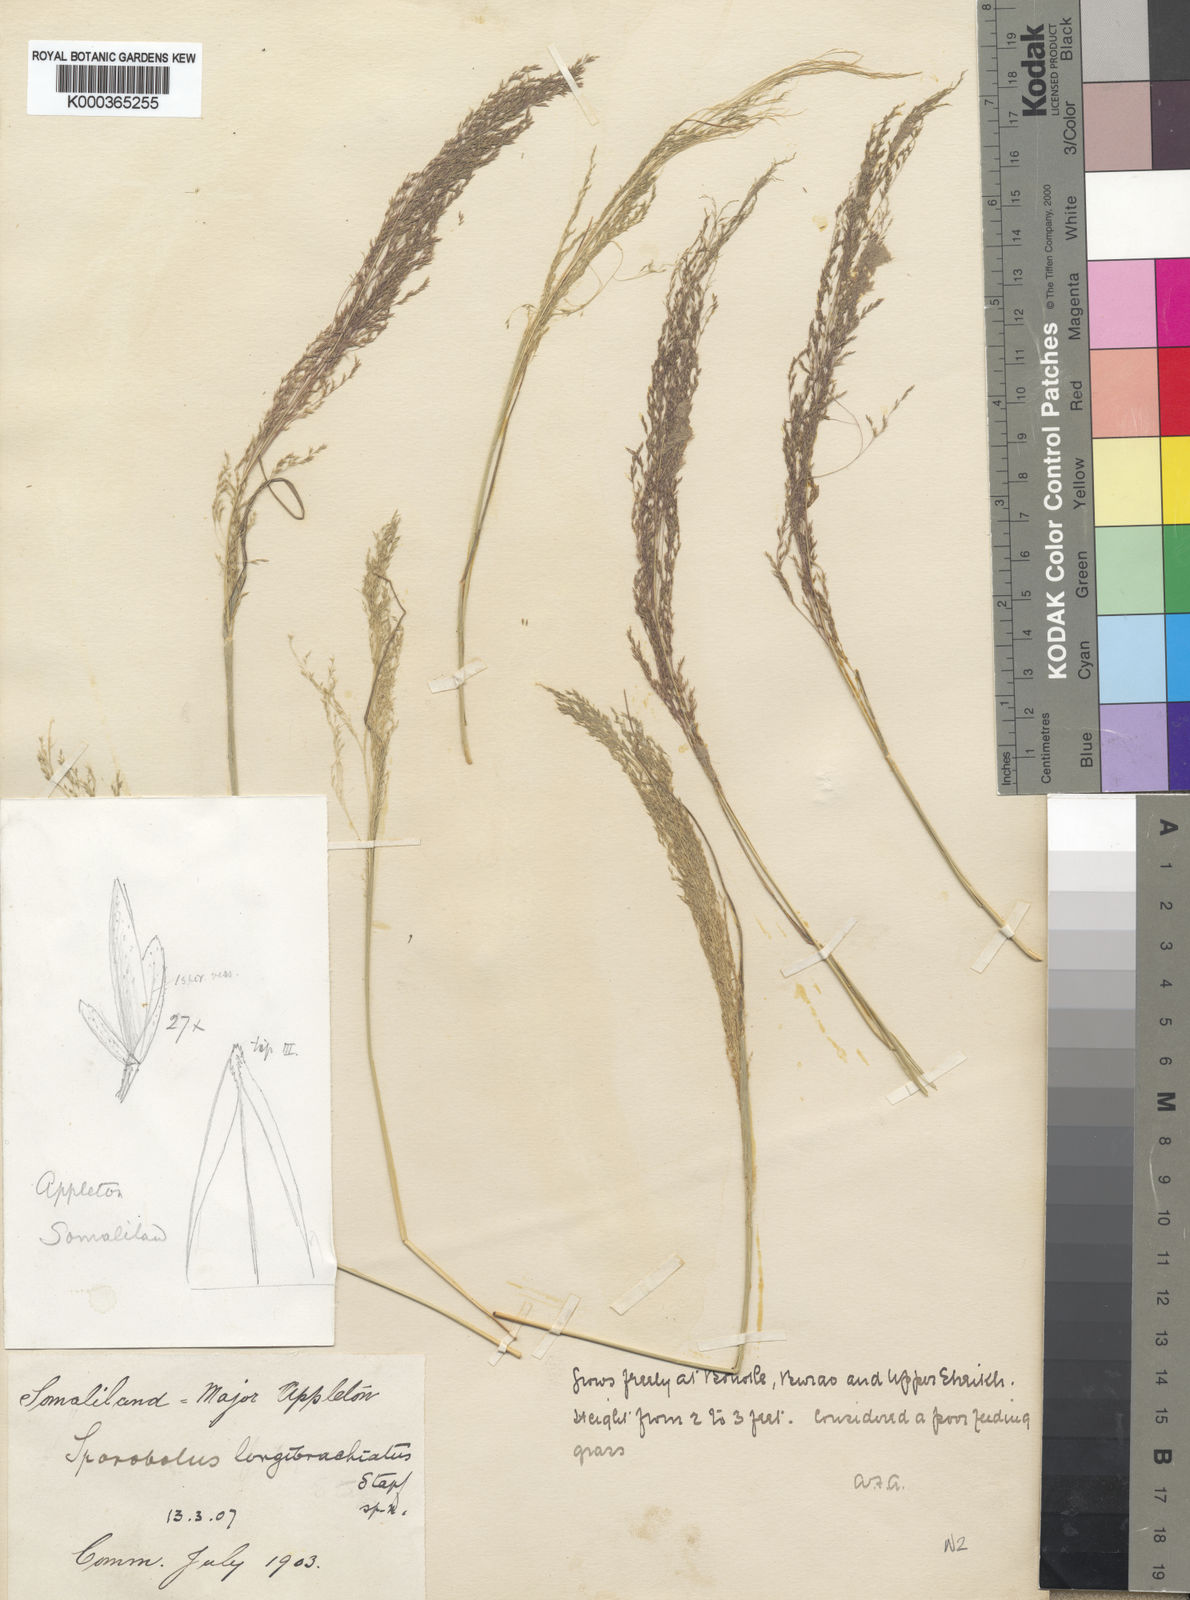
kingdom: Plantae
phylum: Tracheophyta
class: Liliopsida
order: Poales
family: Poaceae
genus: Sporobolus
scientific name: Sporobolus nervosus
